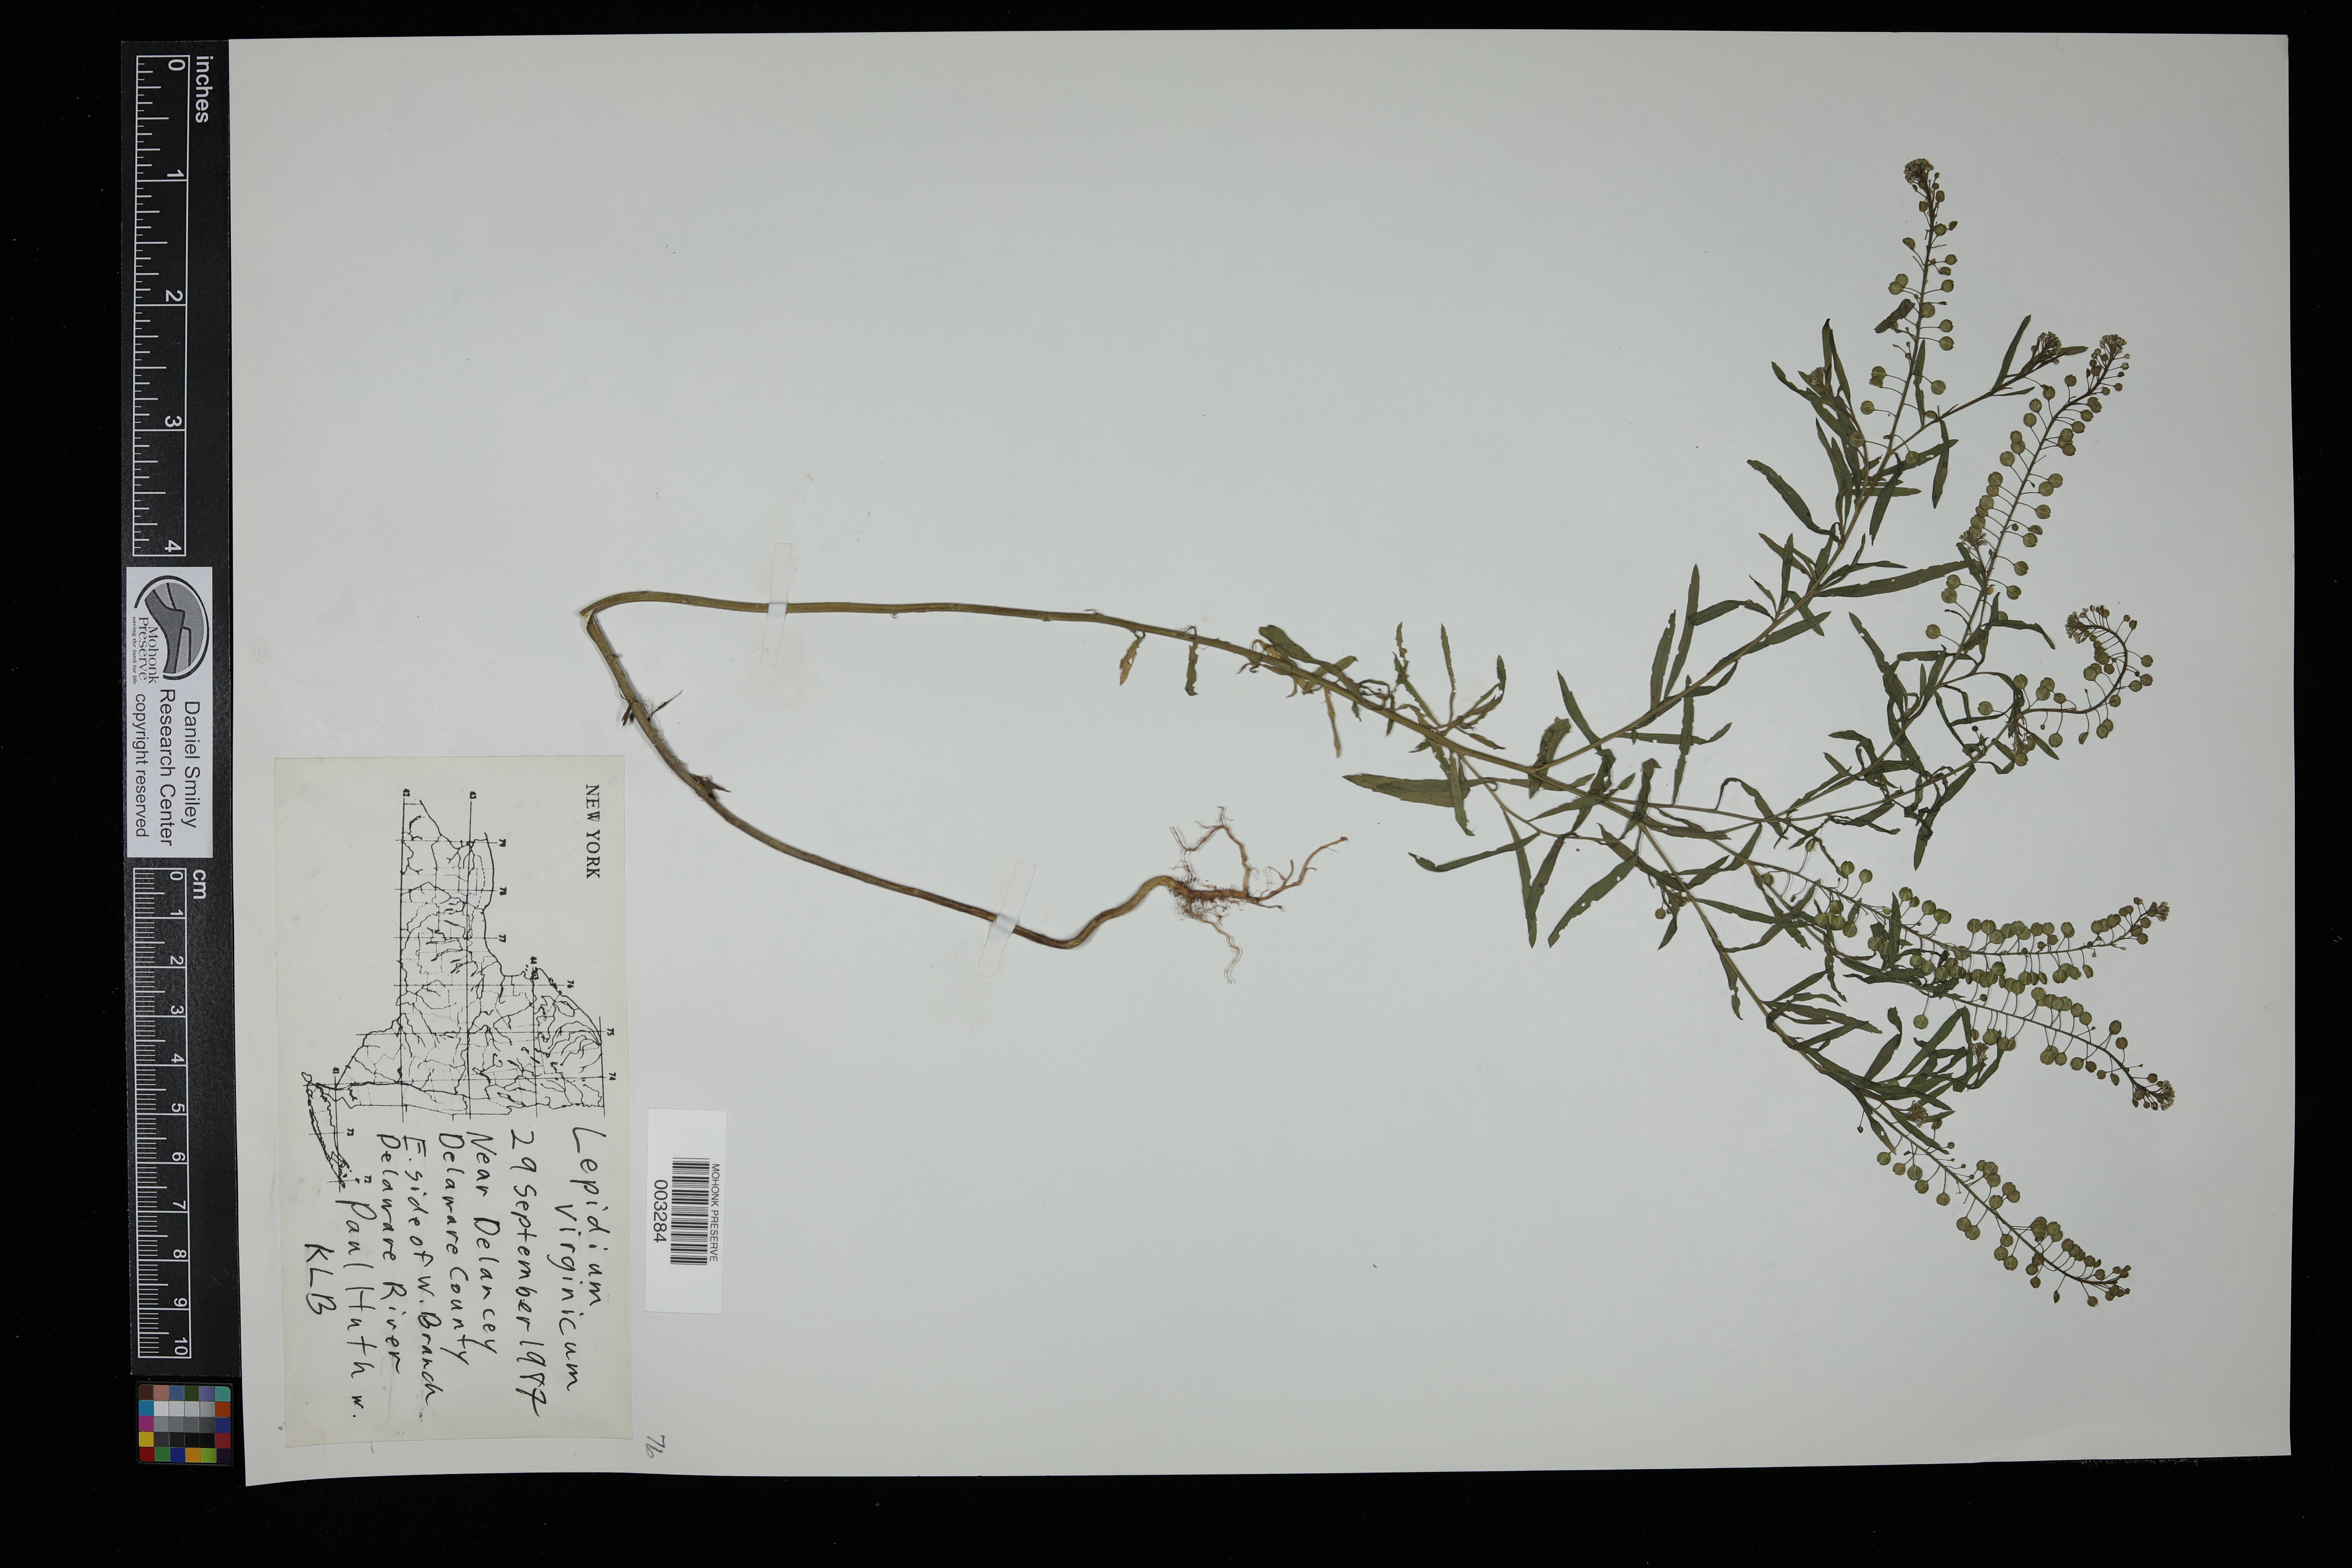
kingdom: Plantae
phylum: Tracheophyta
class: Magnoliopsida
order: Brassicales
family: Brassicaceae
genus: Lepidium
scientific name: Lepidium virginicum
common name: Least pepperwort
